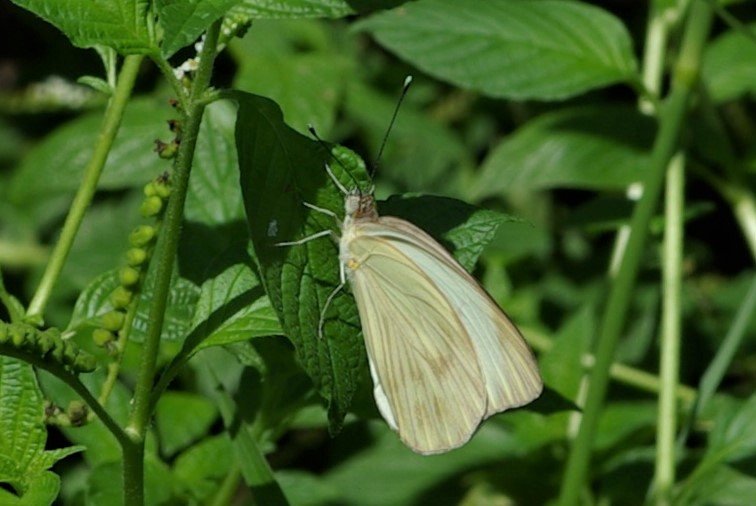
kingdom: Animalia
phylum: Arthropoda
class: Insecta
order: Lepidoptera
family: Pieridae
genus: Ascia
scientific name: Ascia monuste
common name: Great Southern White
